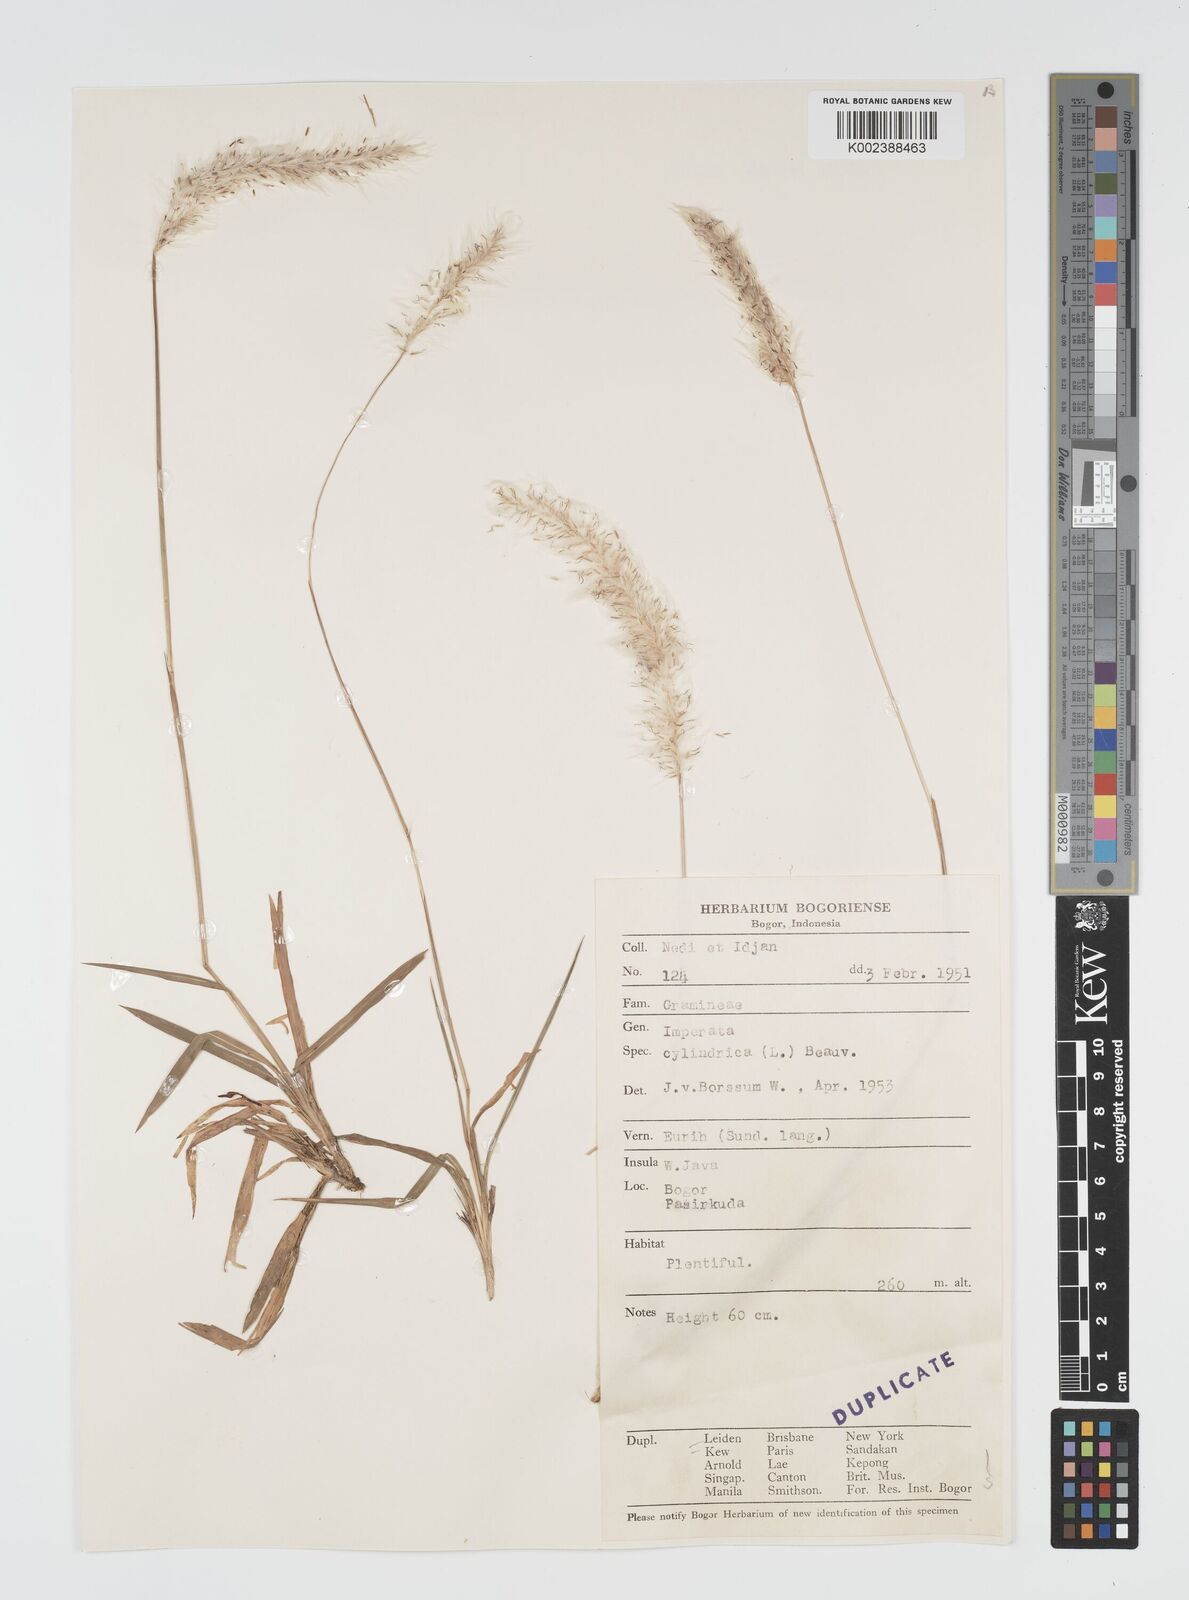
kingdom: Plantae
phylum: Tracheophyta
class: Liliopsida
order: Poales
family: Poaceae
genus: Imperata
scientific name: Imperata cylindrica
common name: Cogongrass
